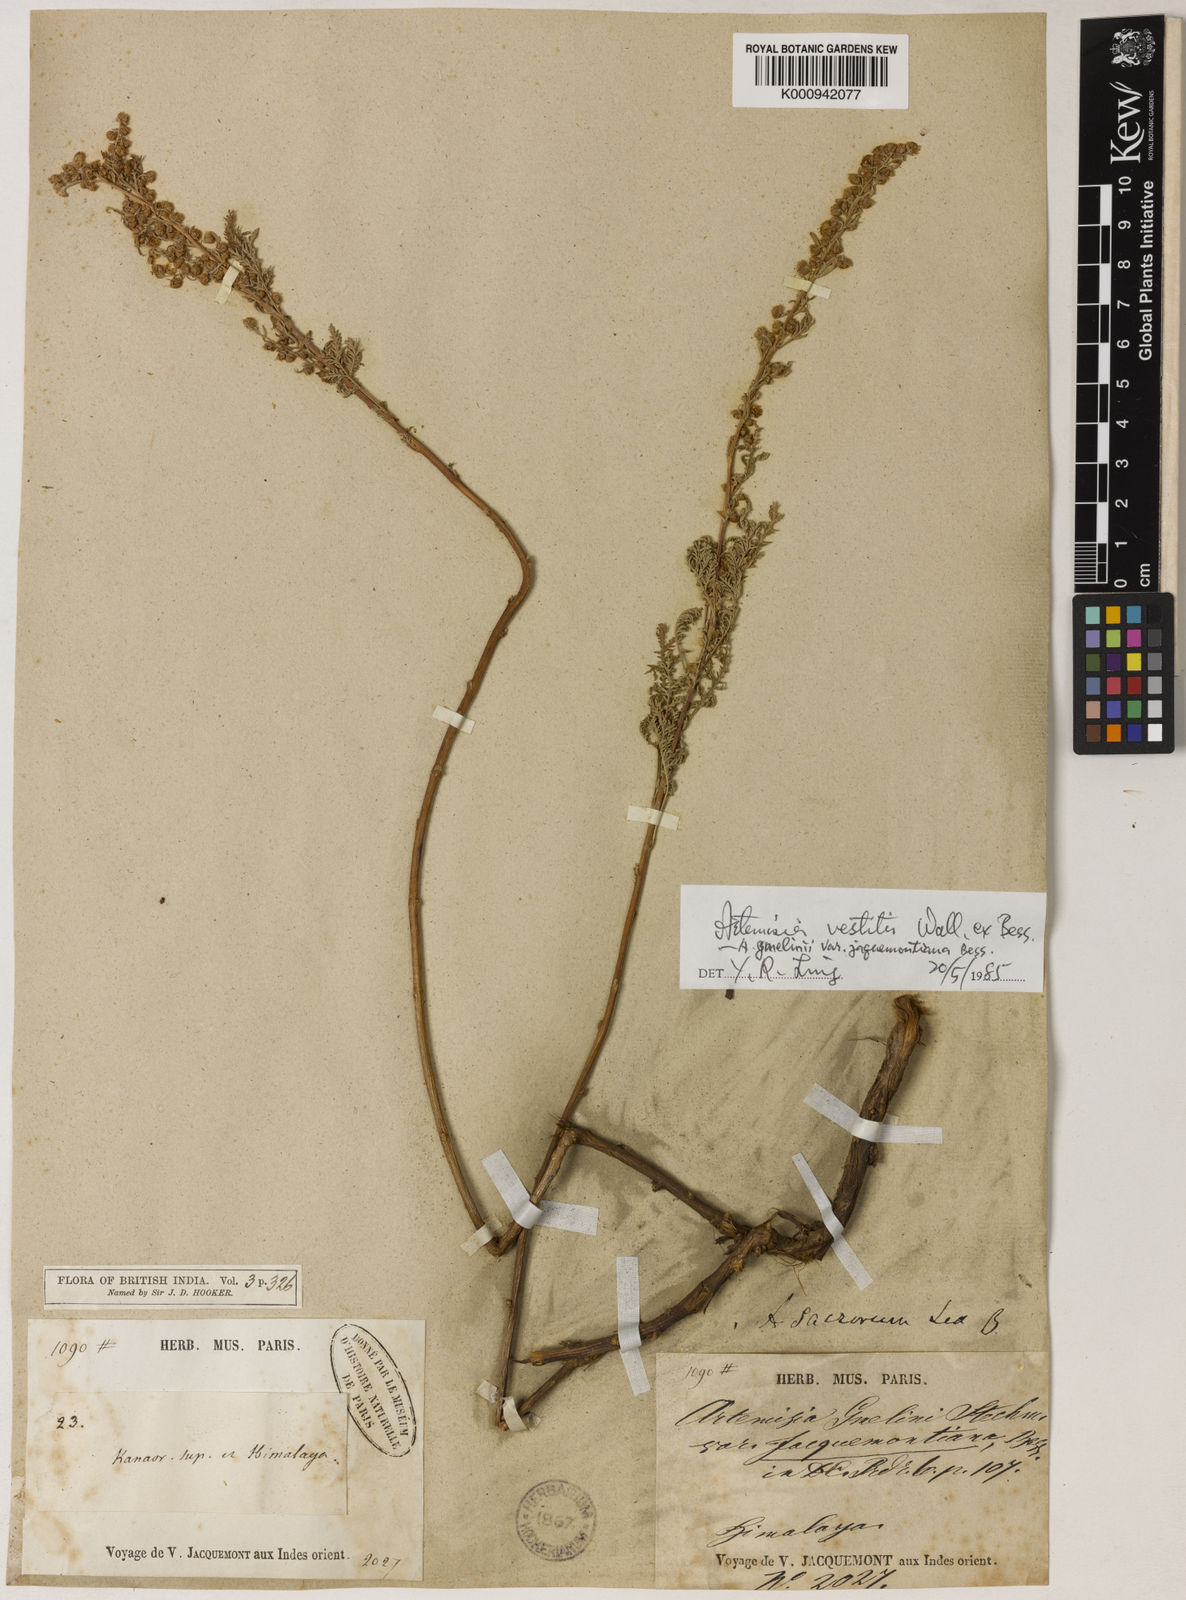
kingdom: Plantae
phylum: Tracheophyta
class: Magnoliopsida
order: Asterales
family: Asteraceae
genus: Artemisia
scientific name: Artemisia vestita
